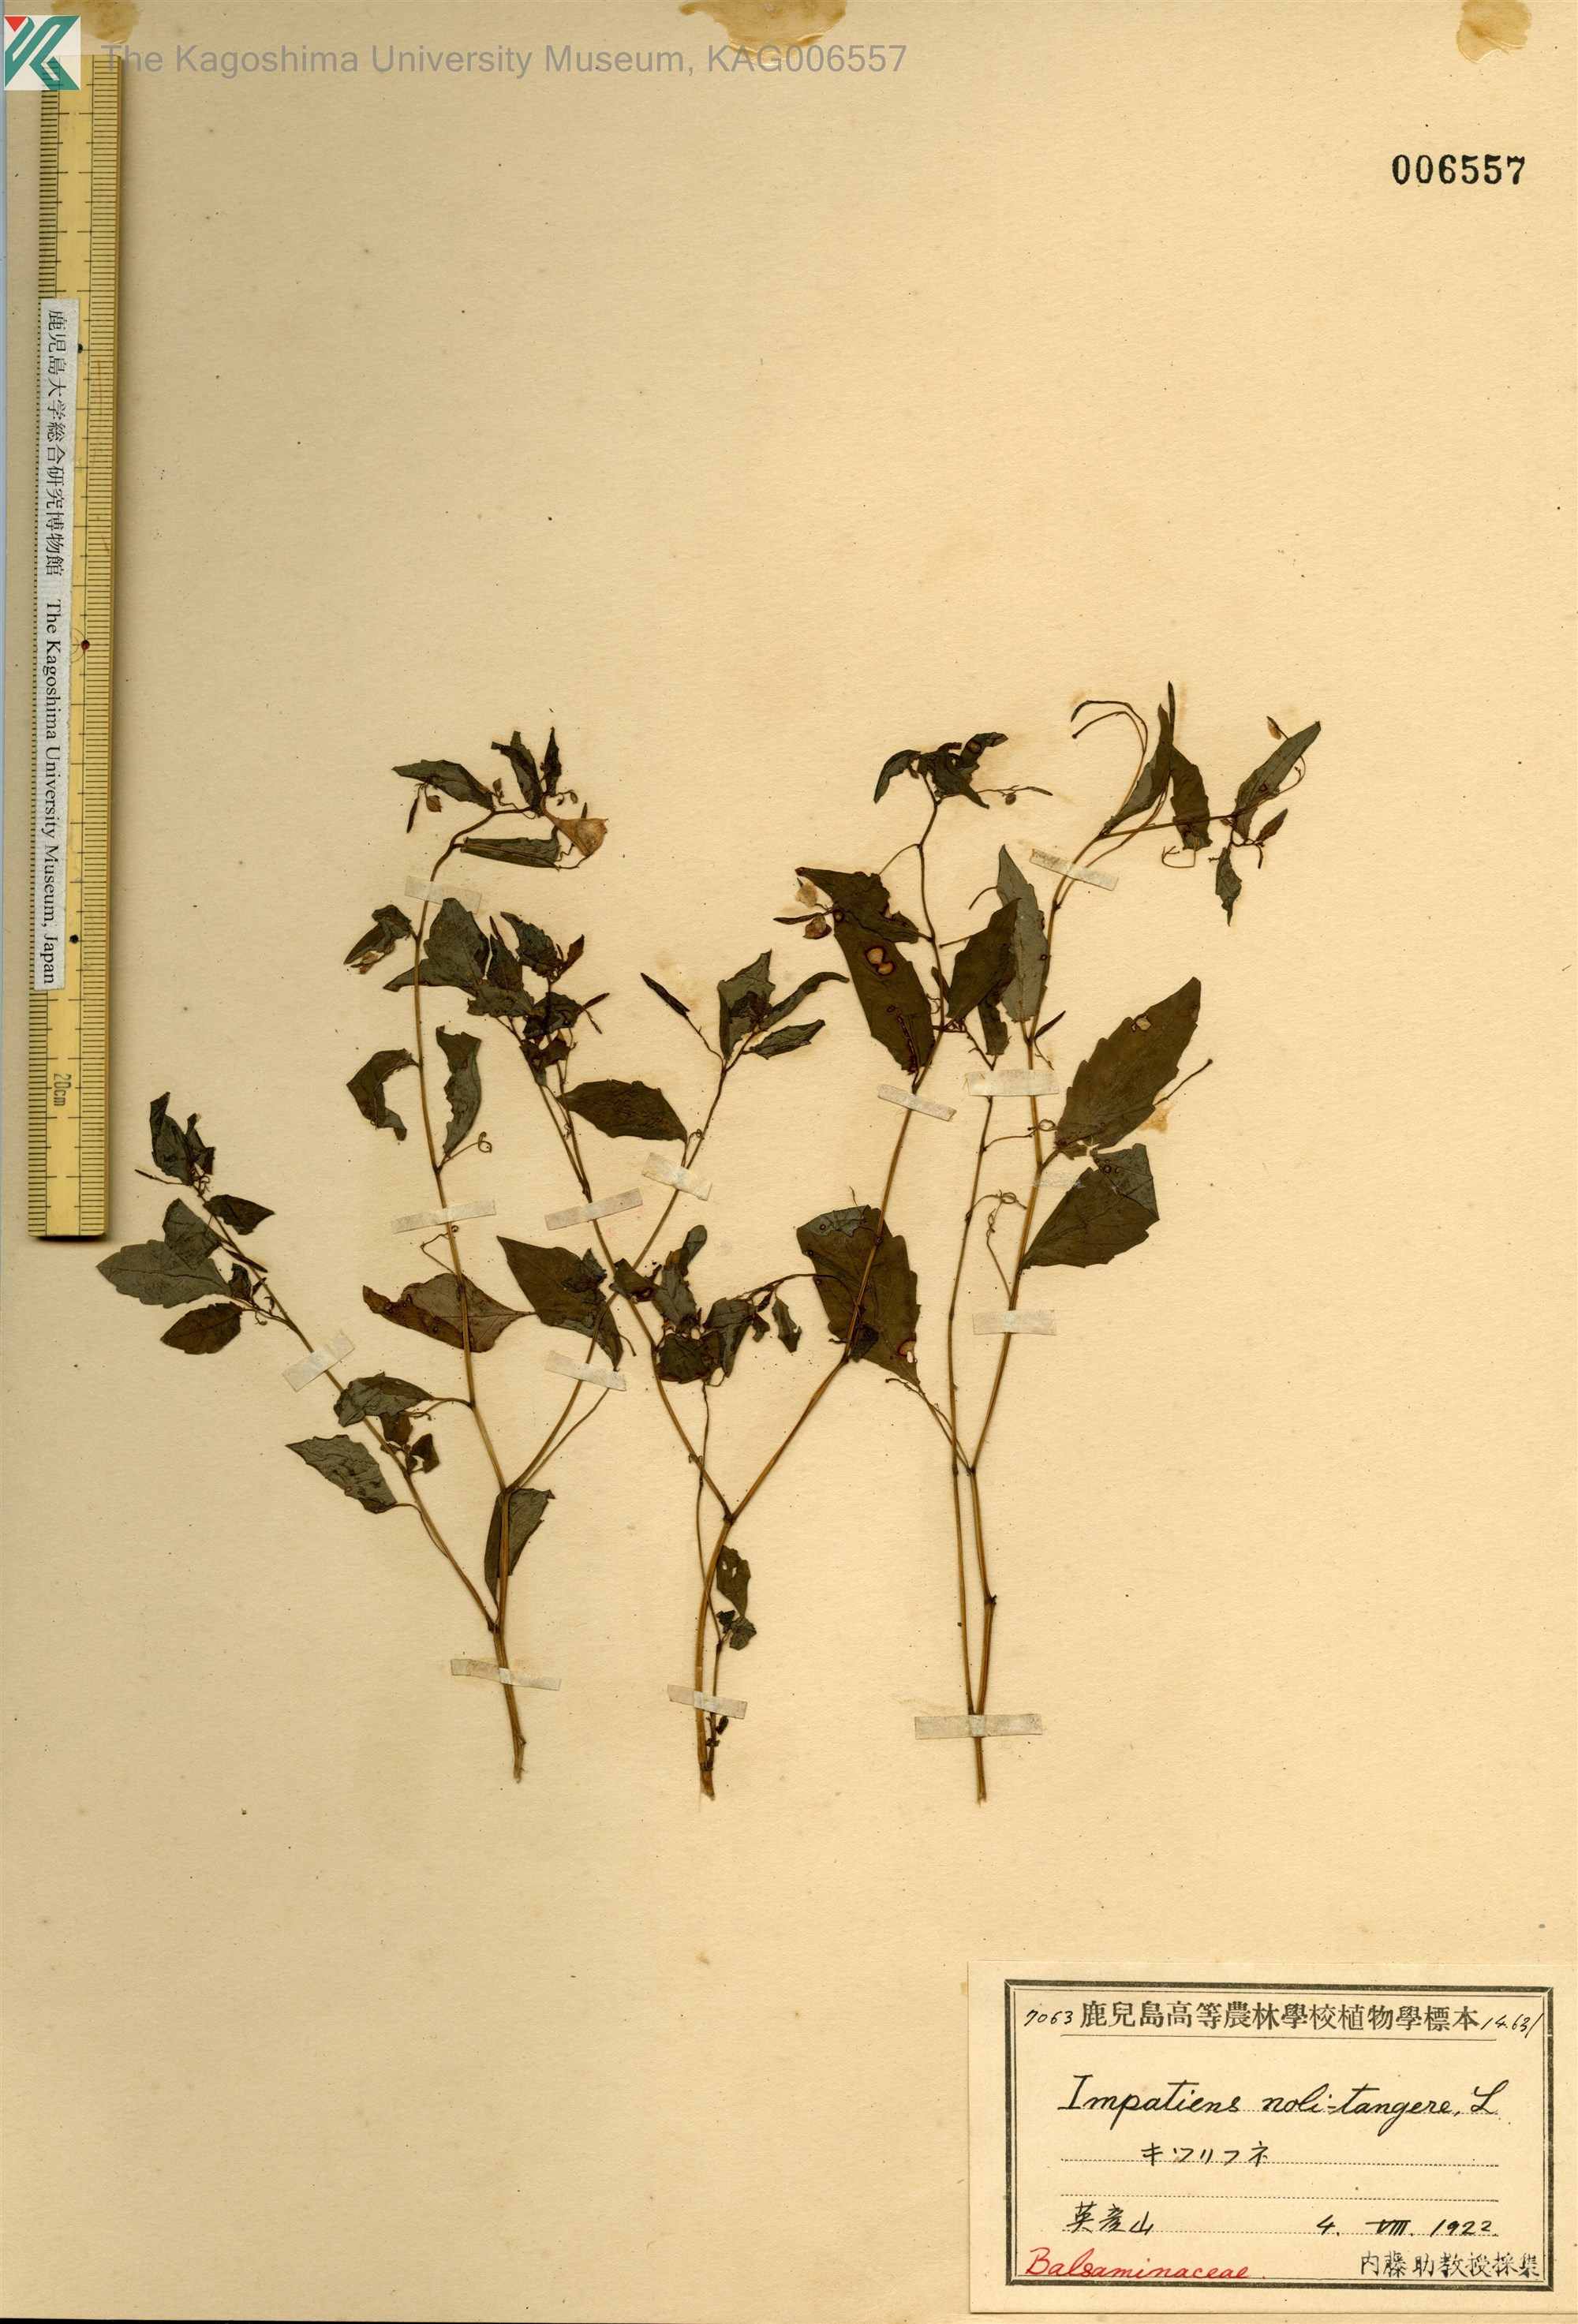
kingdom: Plantae
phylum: Tracheophyta
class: Magnoliopsida
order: Ericales
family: Balsaminaceae
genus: Impatiens
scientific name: Impatiens noli-tangere
